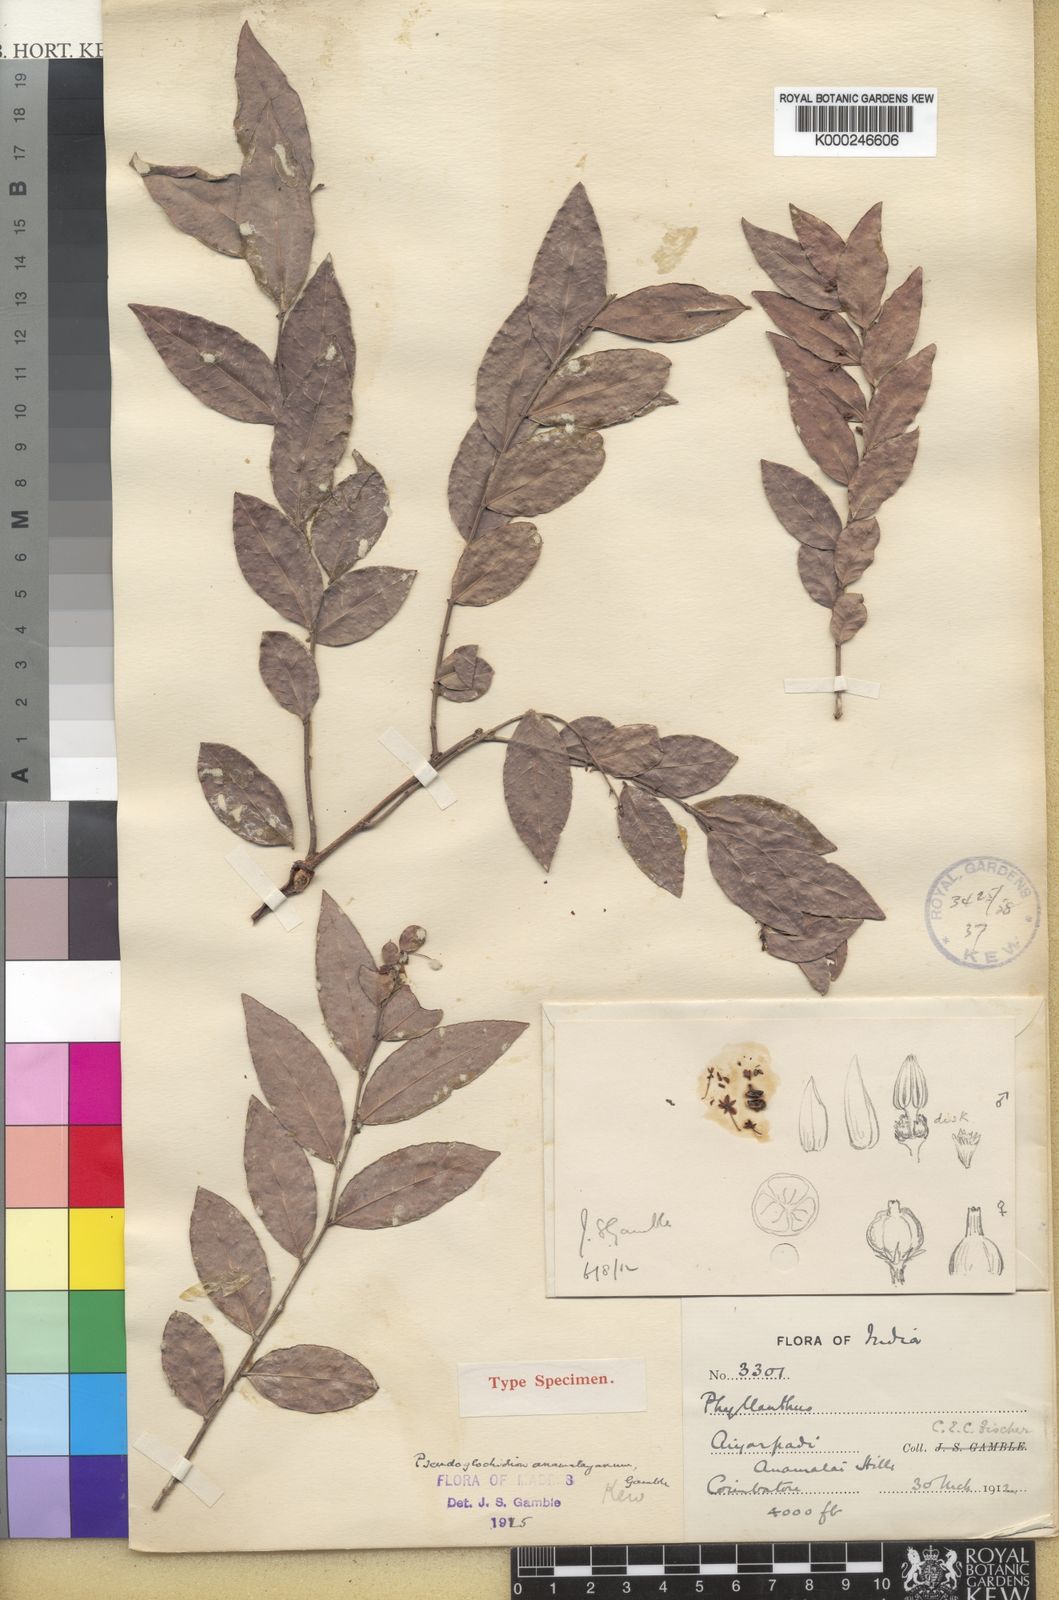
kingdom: Plantae
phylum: Tracheophyta
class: Magnoliopsida
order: Malpighiales
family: Phyllanthaceae
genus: Phyllanthus
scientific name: Phyllanthus anamalayanus
